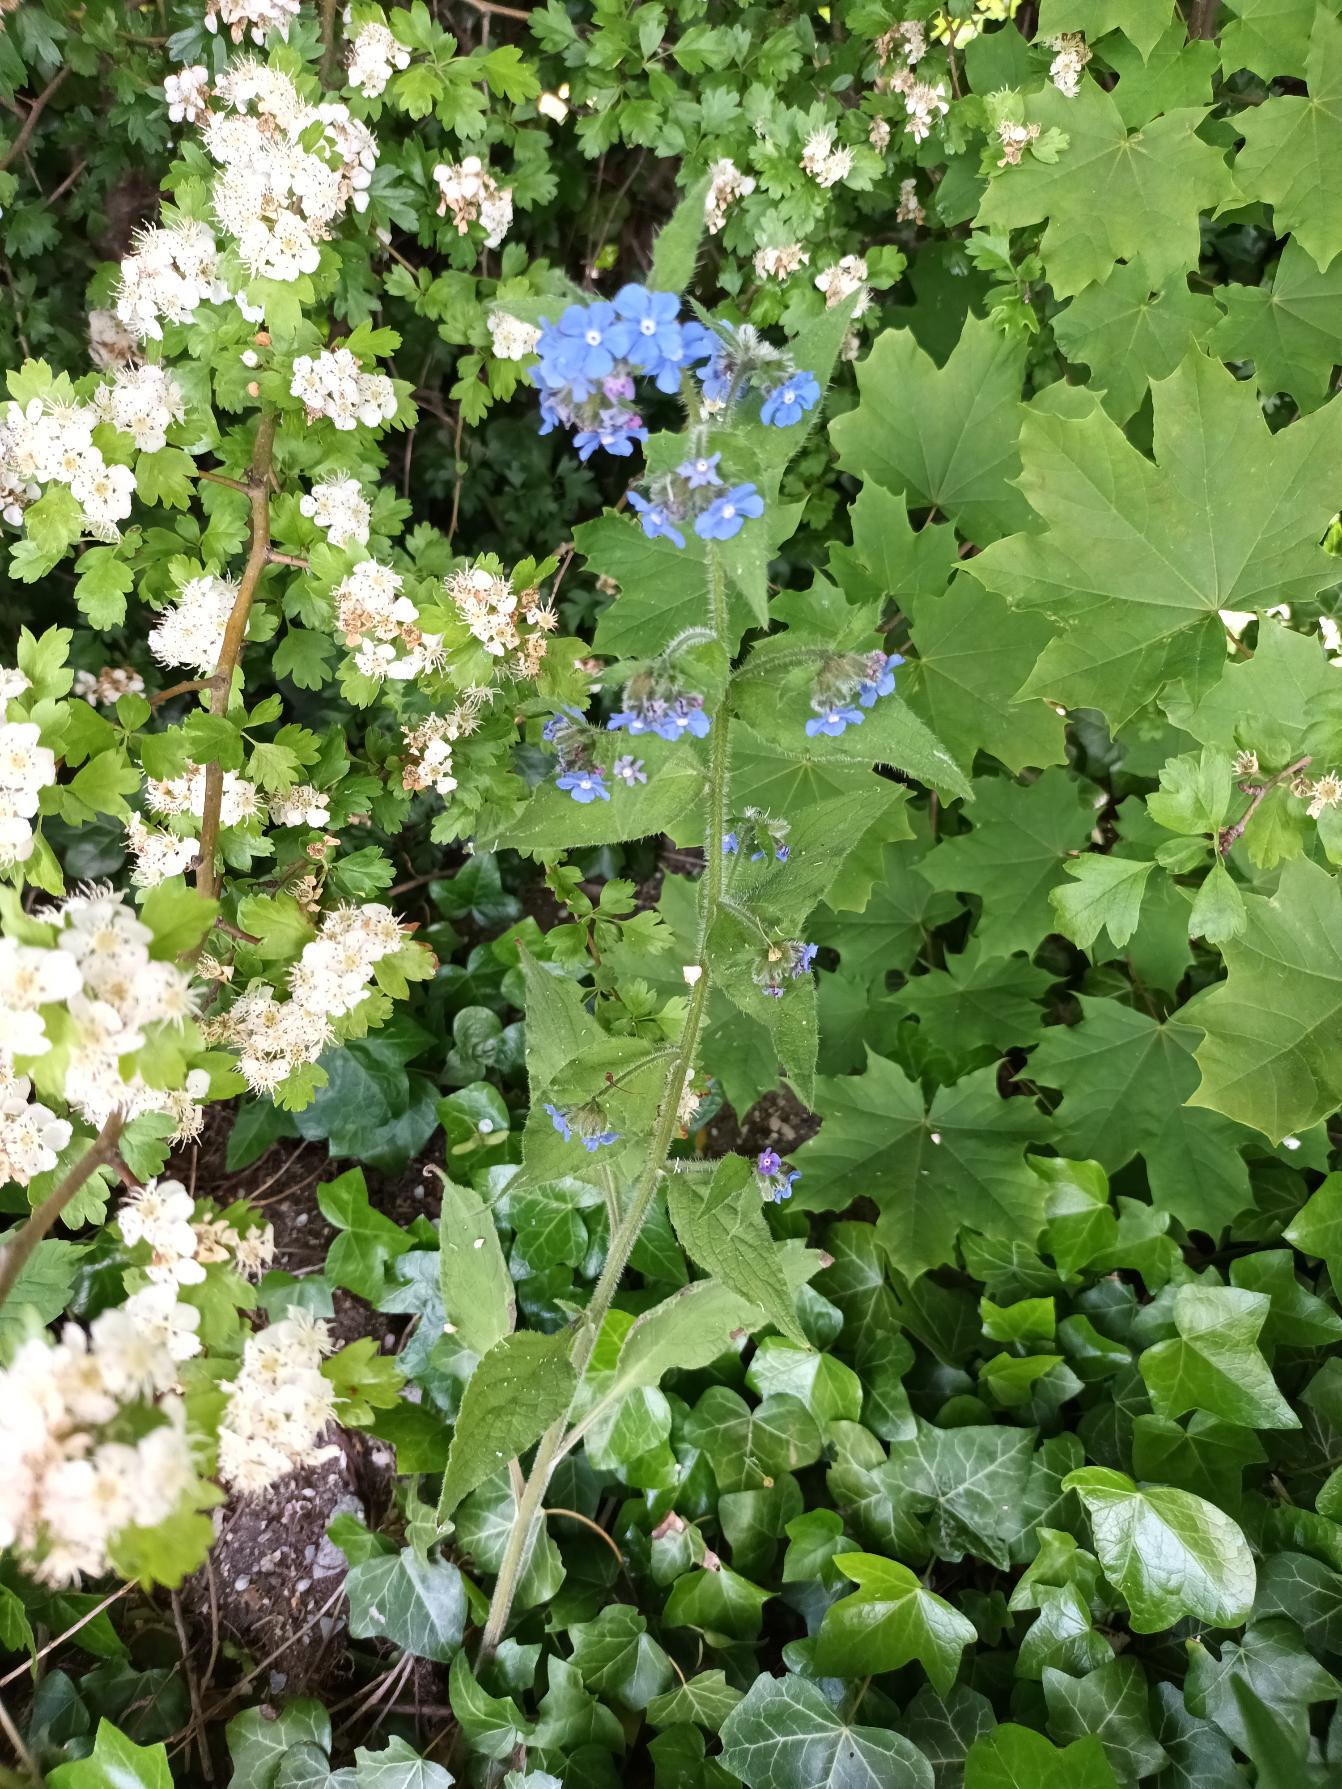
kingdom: Plantae
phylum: Tracheophyta
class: Magnoliopsida
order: Boraginales
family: Boraginaceae
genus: Pentaglottis
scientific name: Pentaglottis sempervirens
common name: Femtunge
